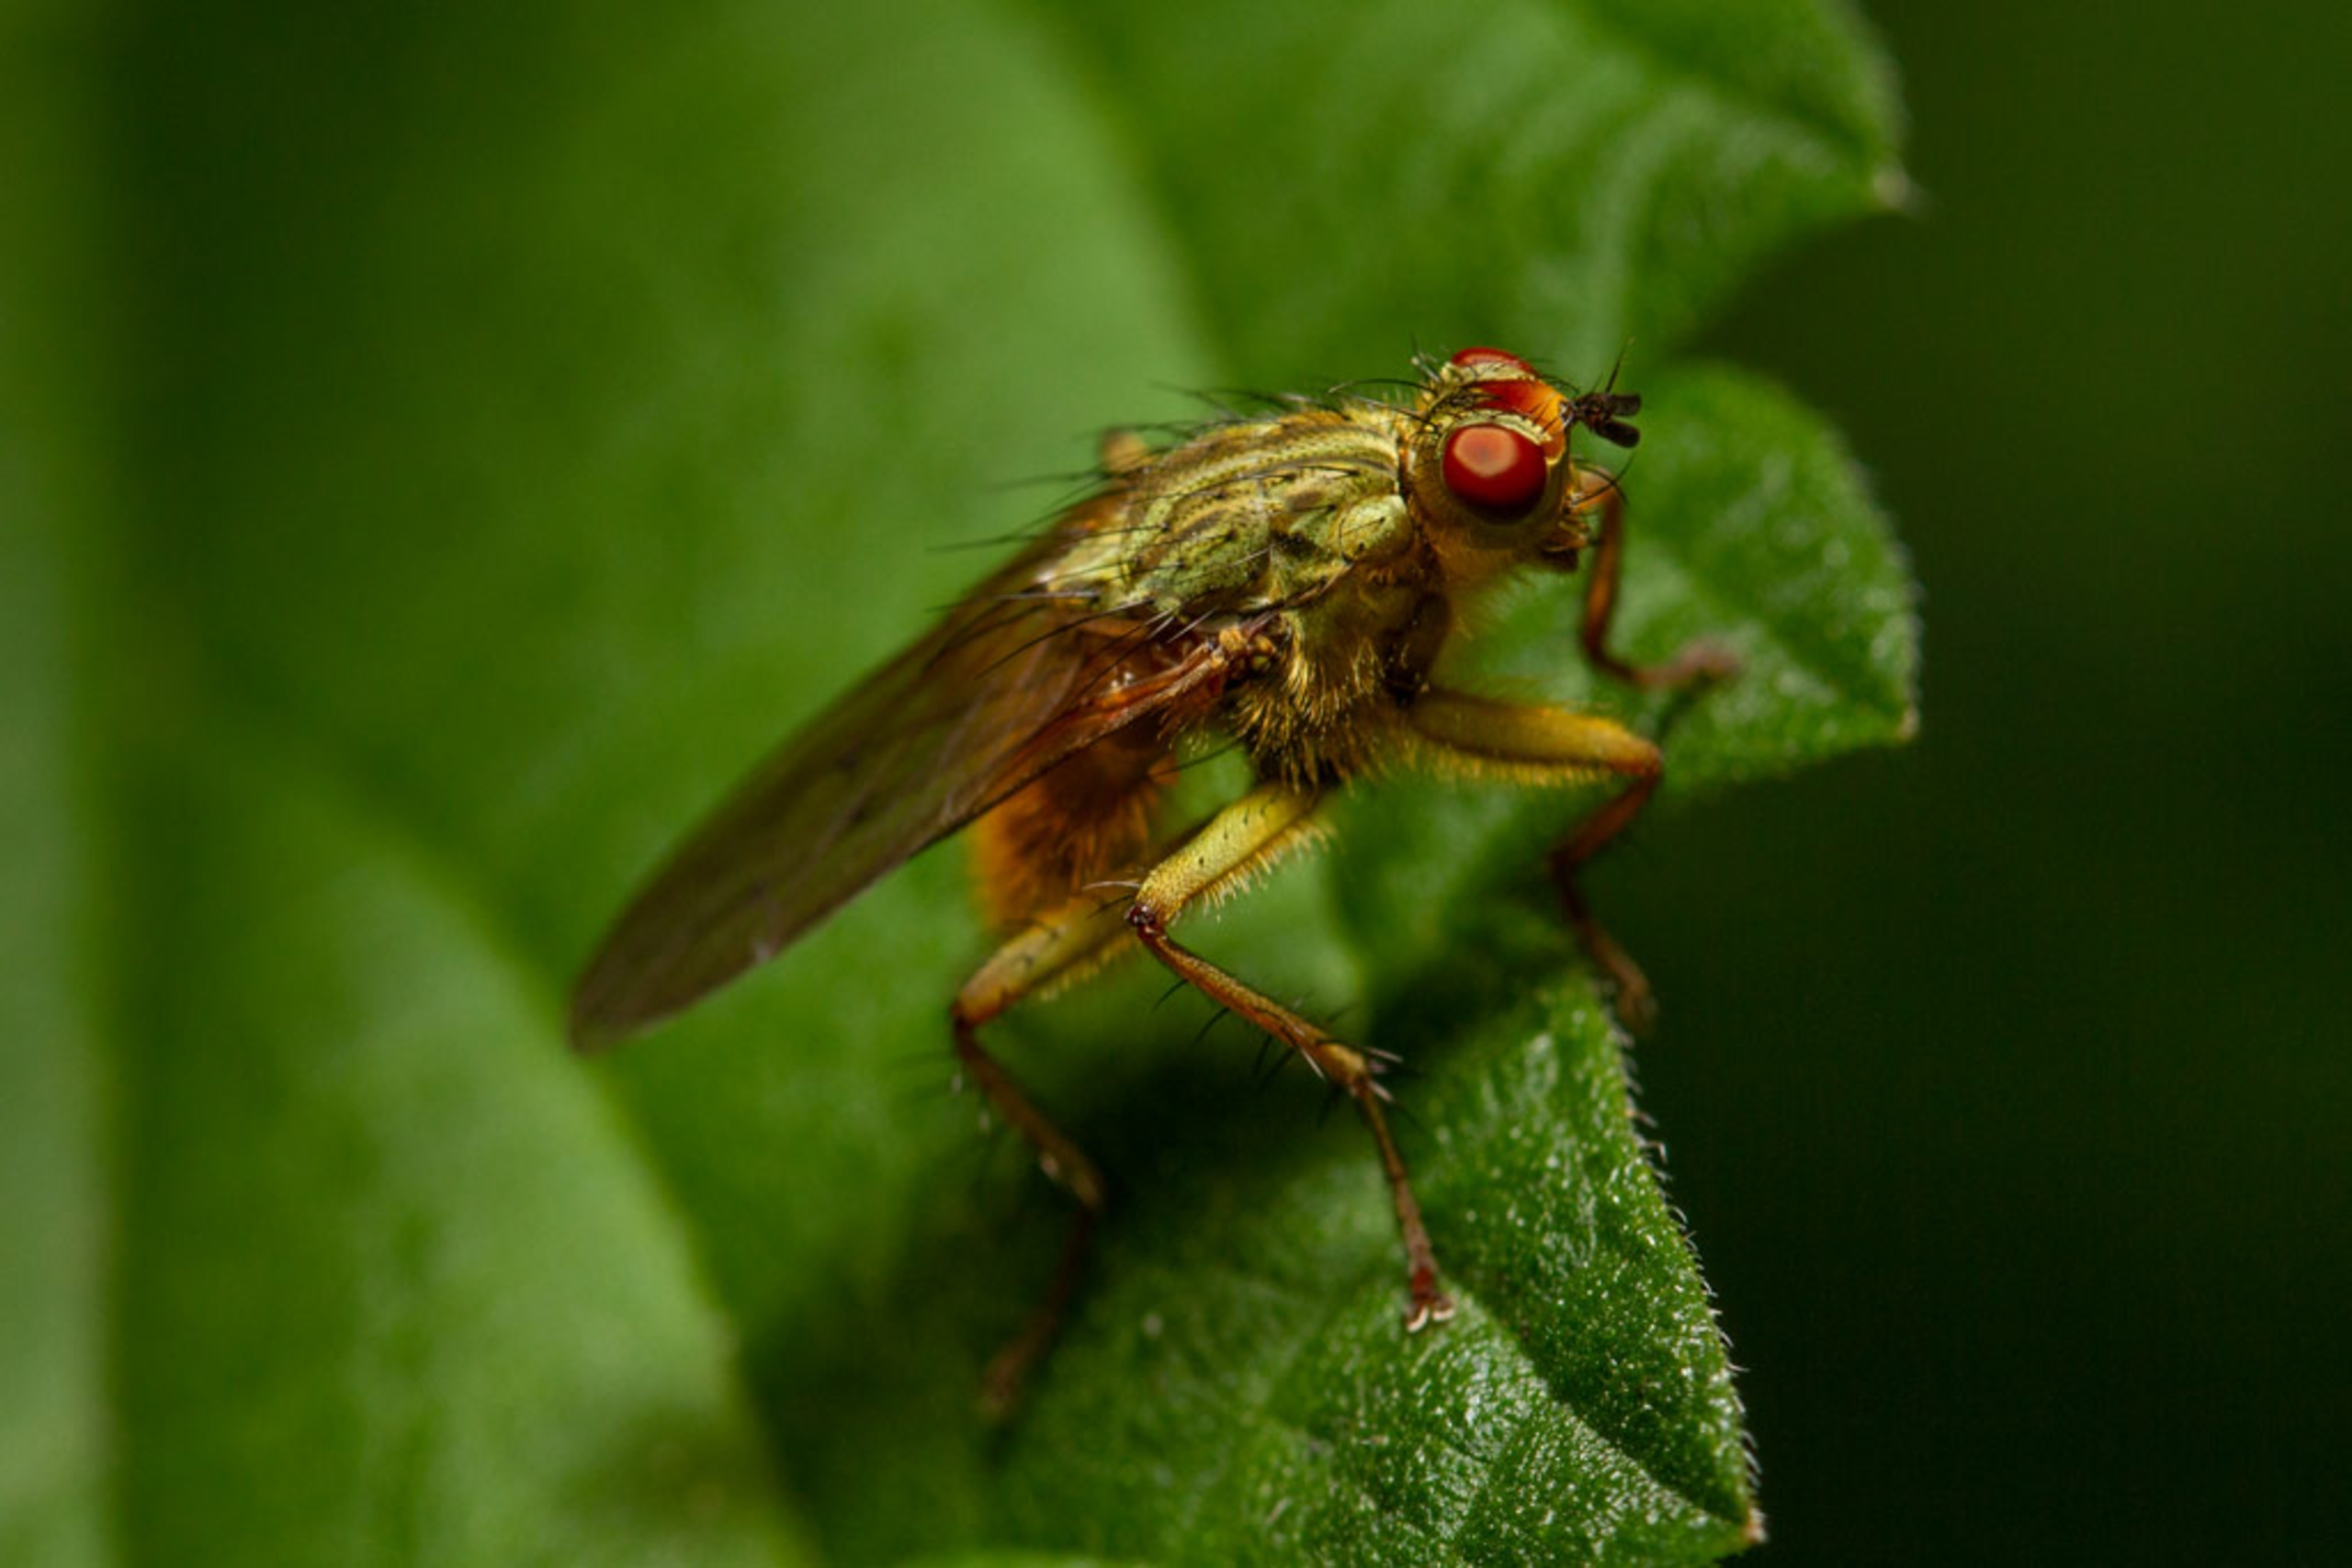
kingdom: Animalia
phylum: Arthropoda
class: Insecta
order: Diptera
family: Scathophagidae
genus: Scathophaga
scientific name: Scathophaga stercoraria
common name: Almindelig gødningsflue
